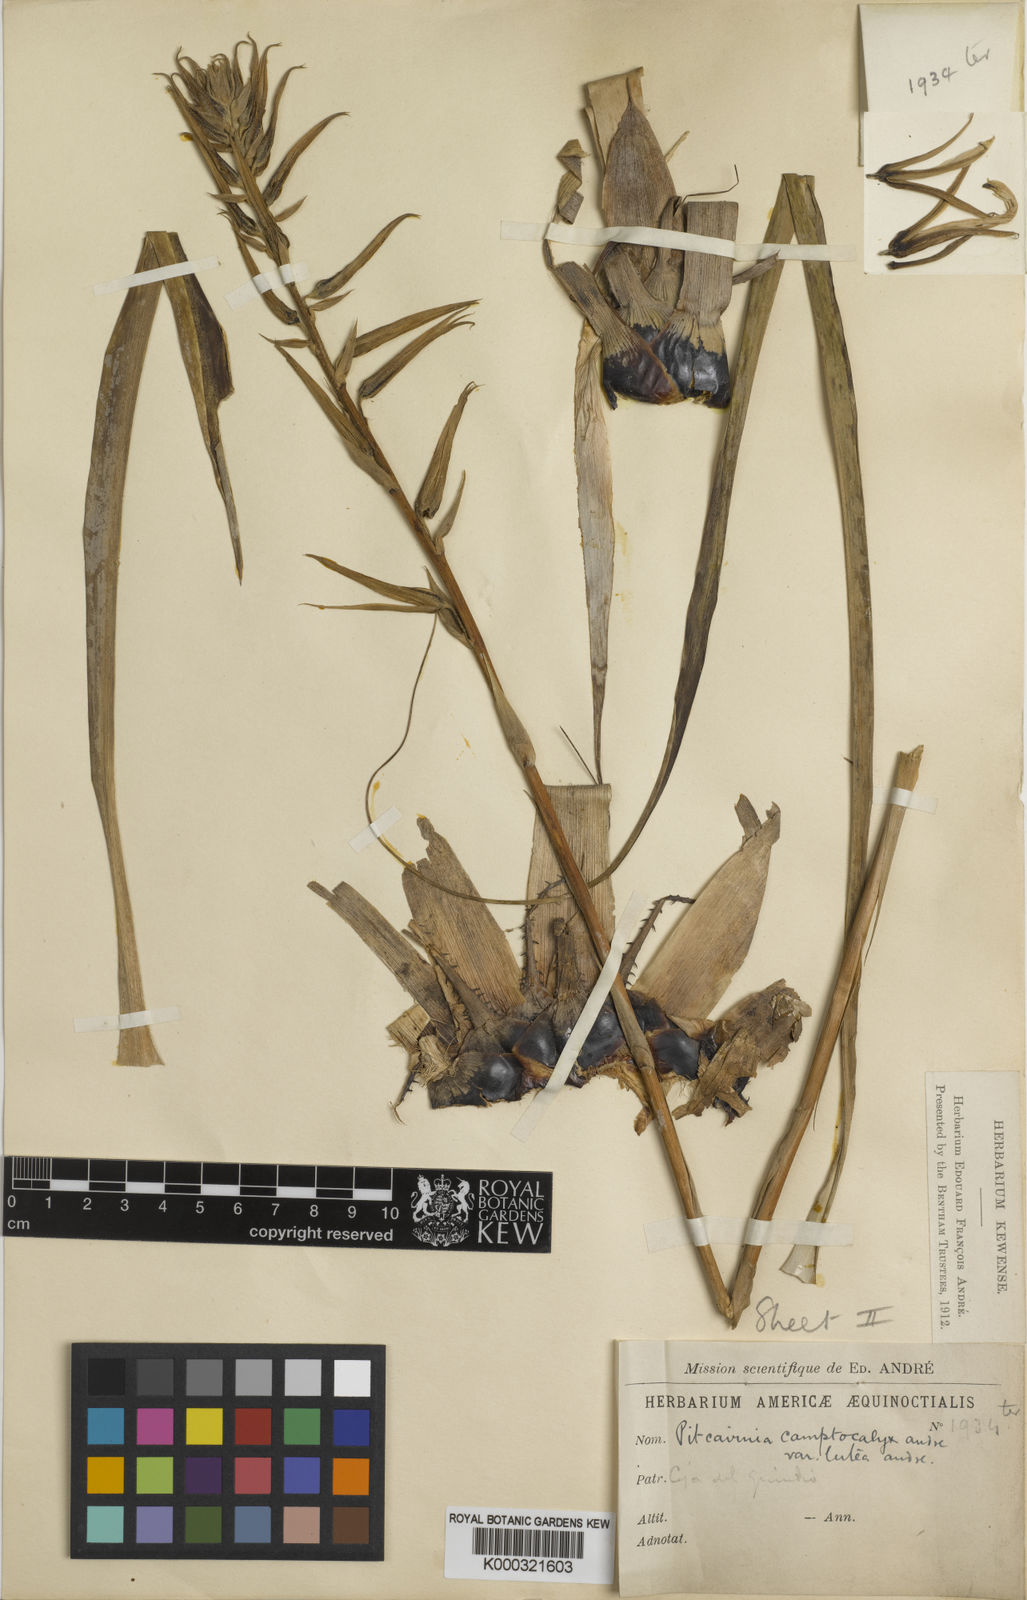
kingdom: Plantae
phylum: Tracheophyta
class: Liliopsida
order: Poales
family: Bromeliaceae
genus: Pitcairnia
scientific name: Pitcairnia megasepala
